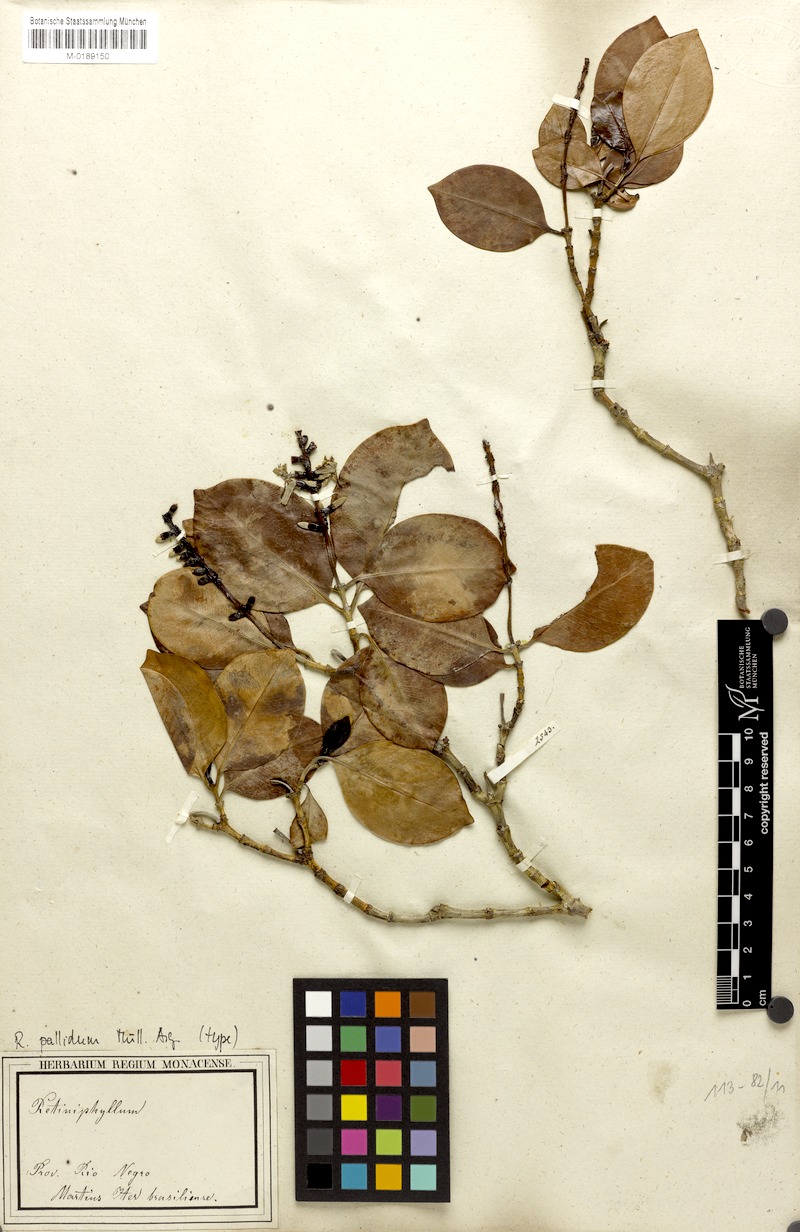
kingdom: Plantae
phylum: Tracheophyta
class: Magnoliopsida
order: Gentianales
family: Rubiaceae
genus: Retiniphyllum
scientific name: Retiniphyllum truncatum
